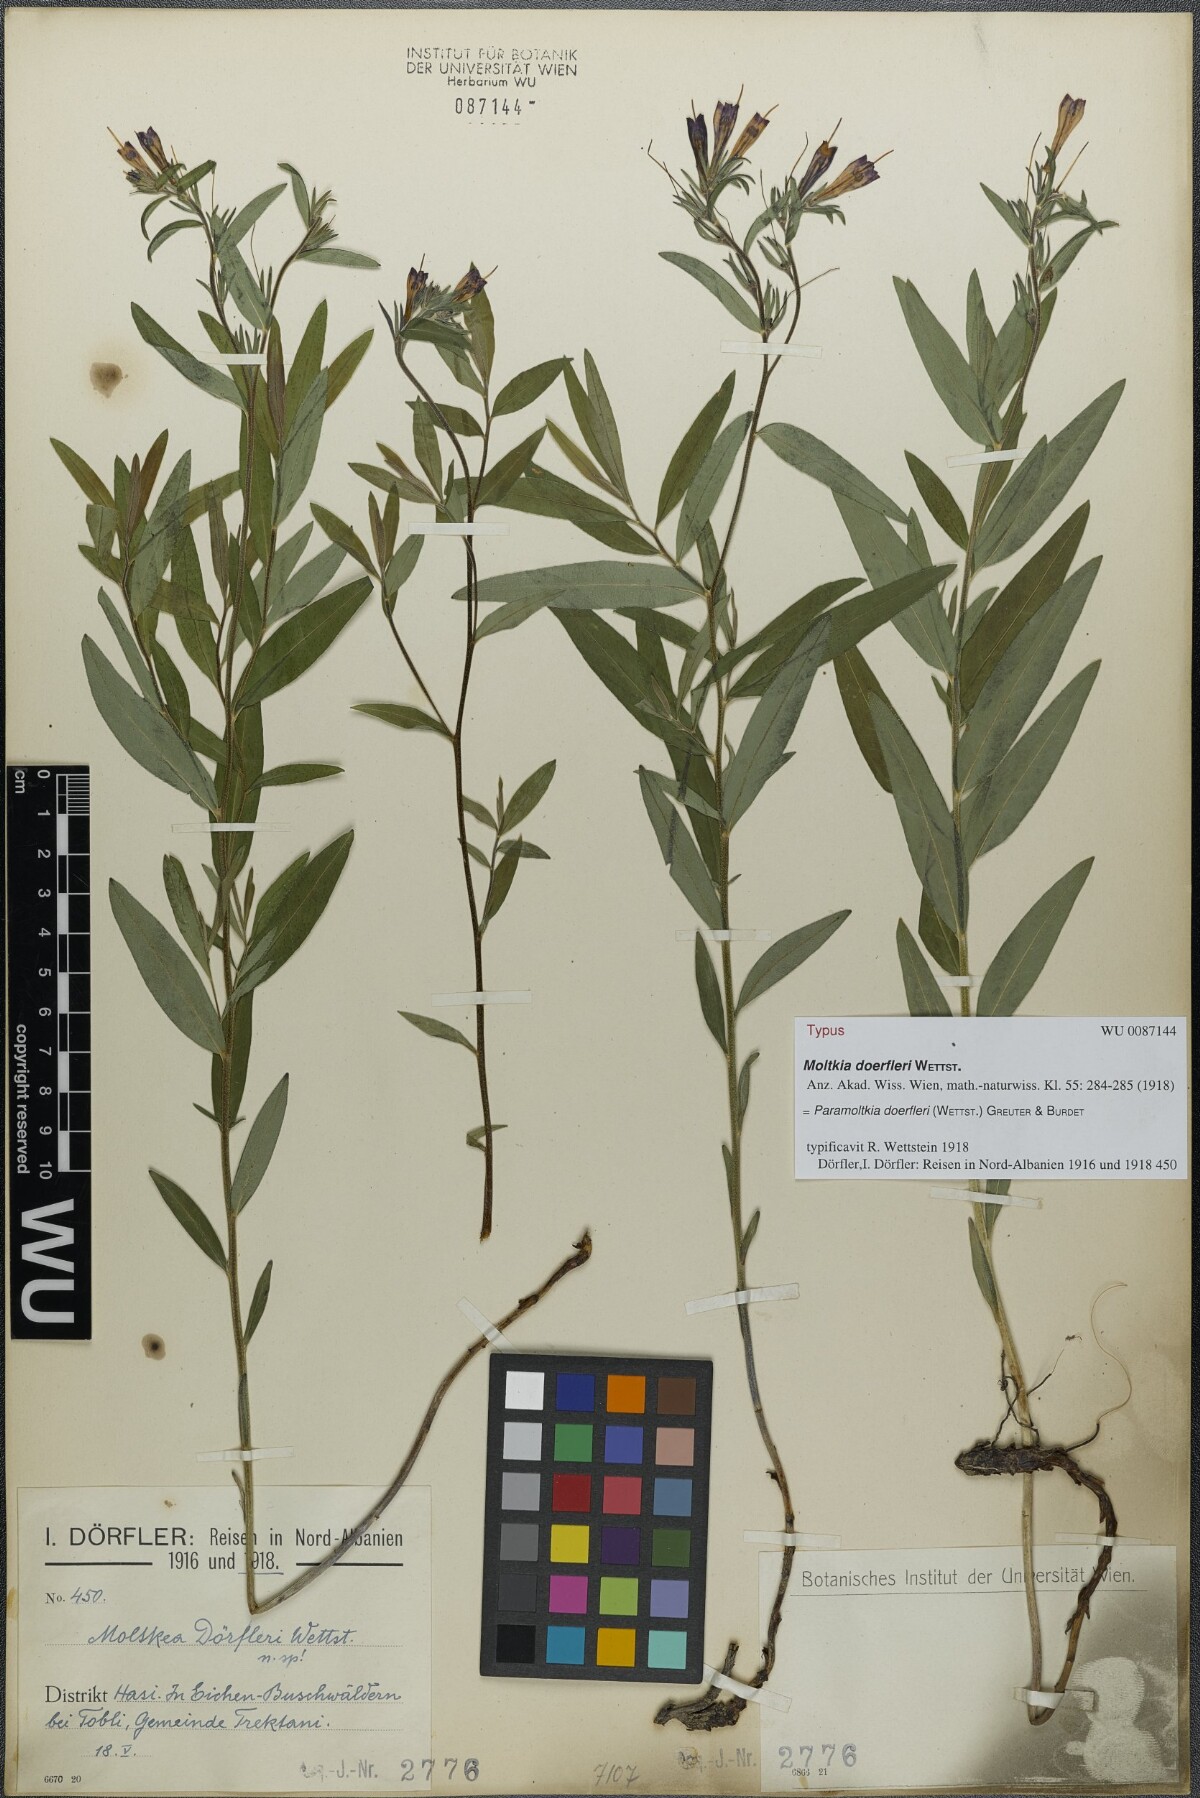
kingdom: Plantae
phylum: Tracheophyta
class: Magnoliopsida
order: Boraginales
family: Boraginaceae
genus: Paramoltkia
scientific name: Paramoltkia doerfleri
